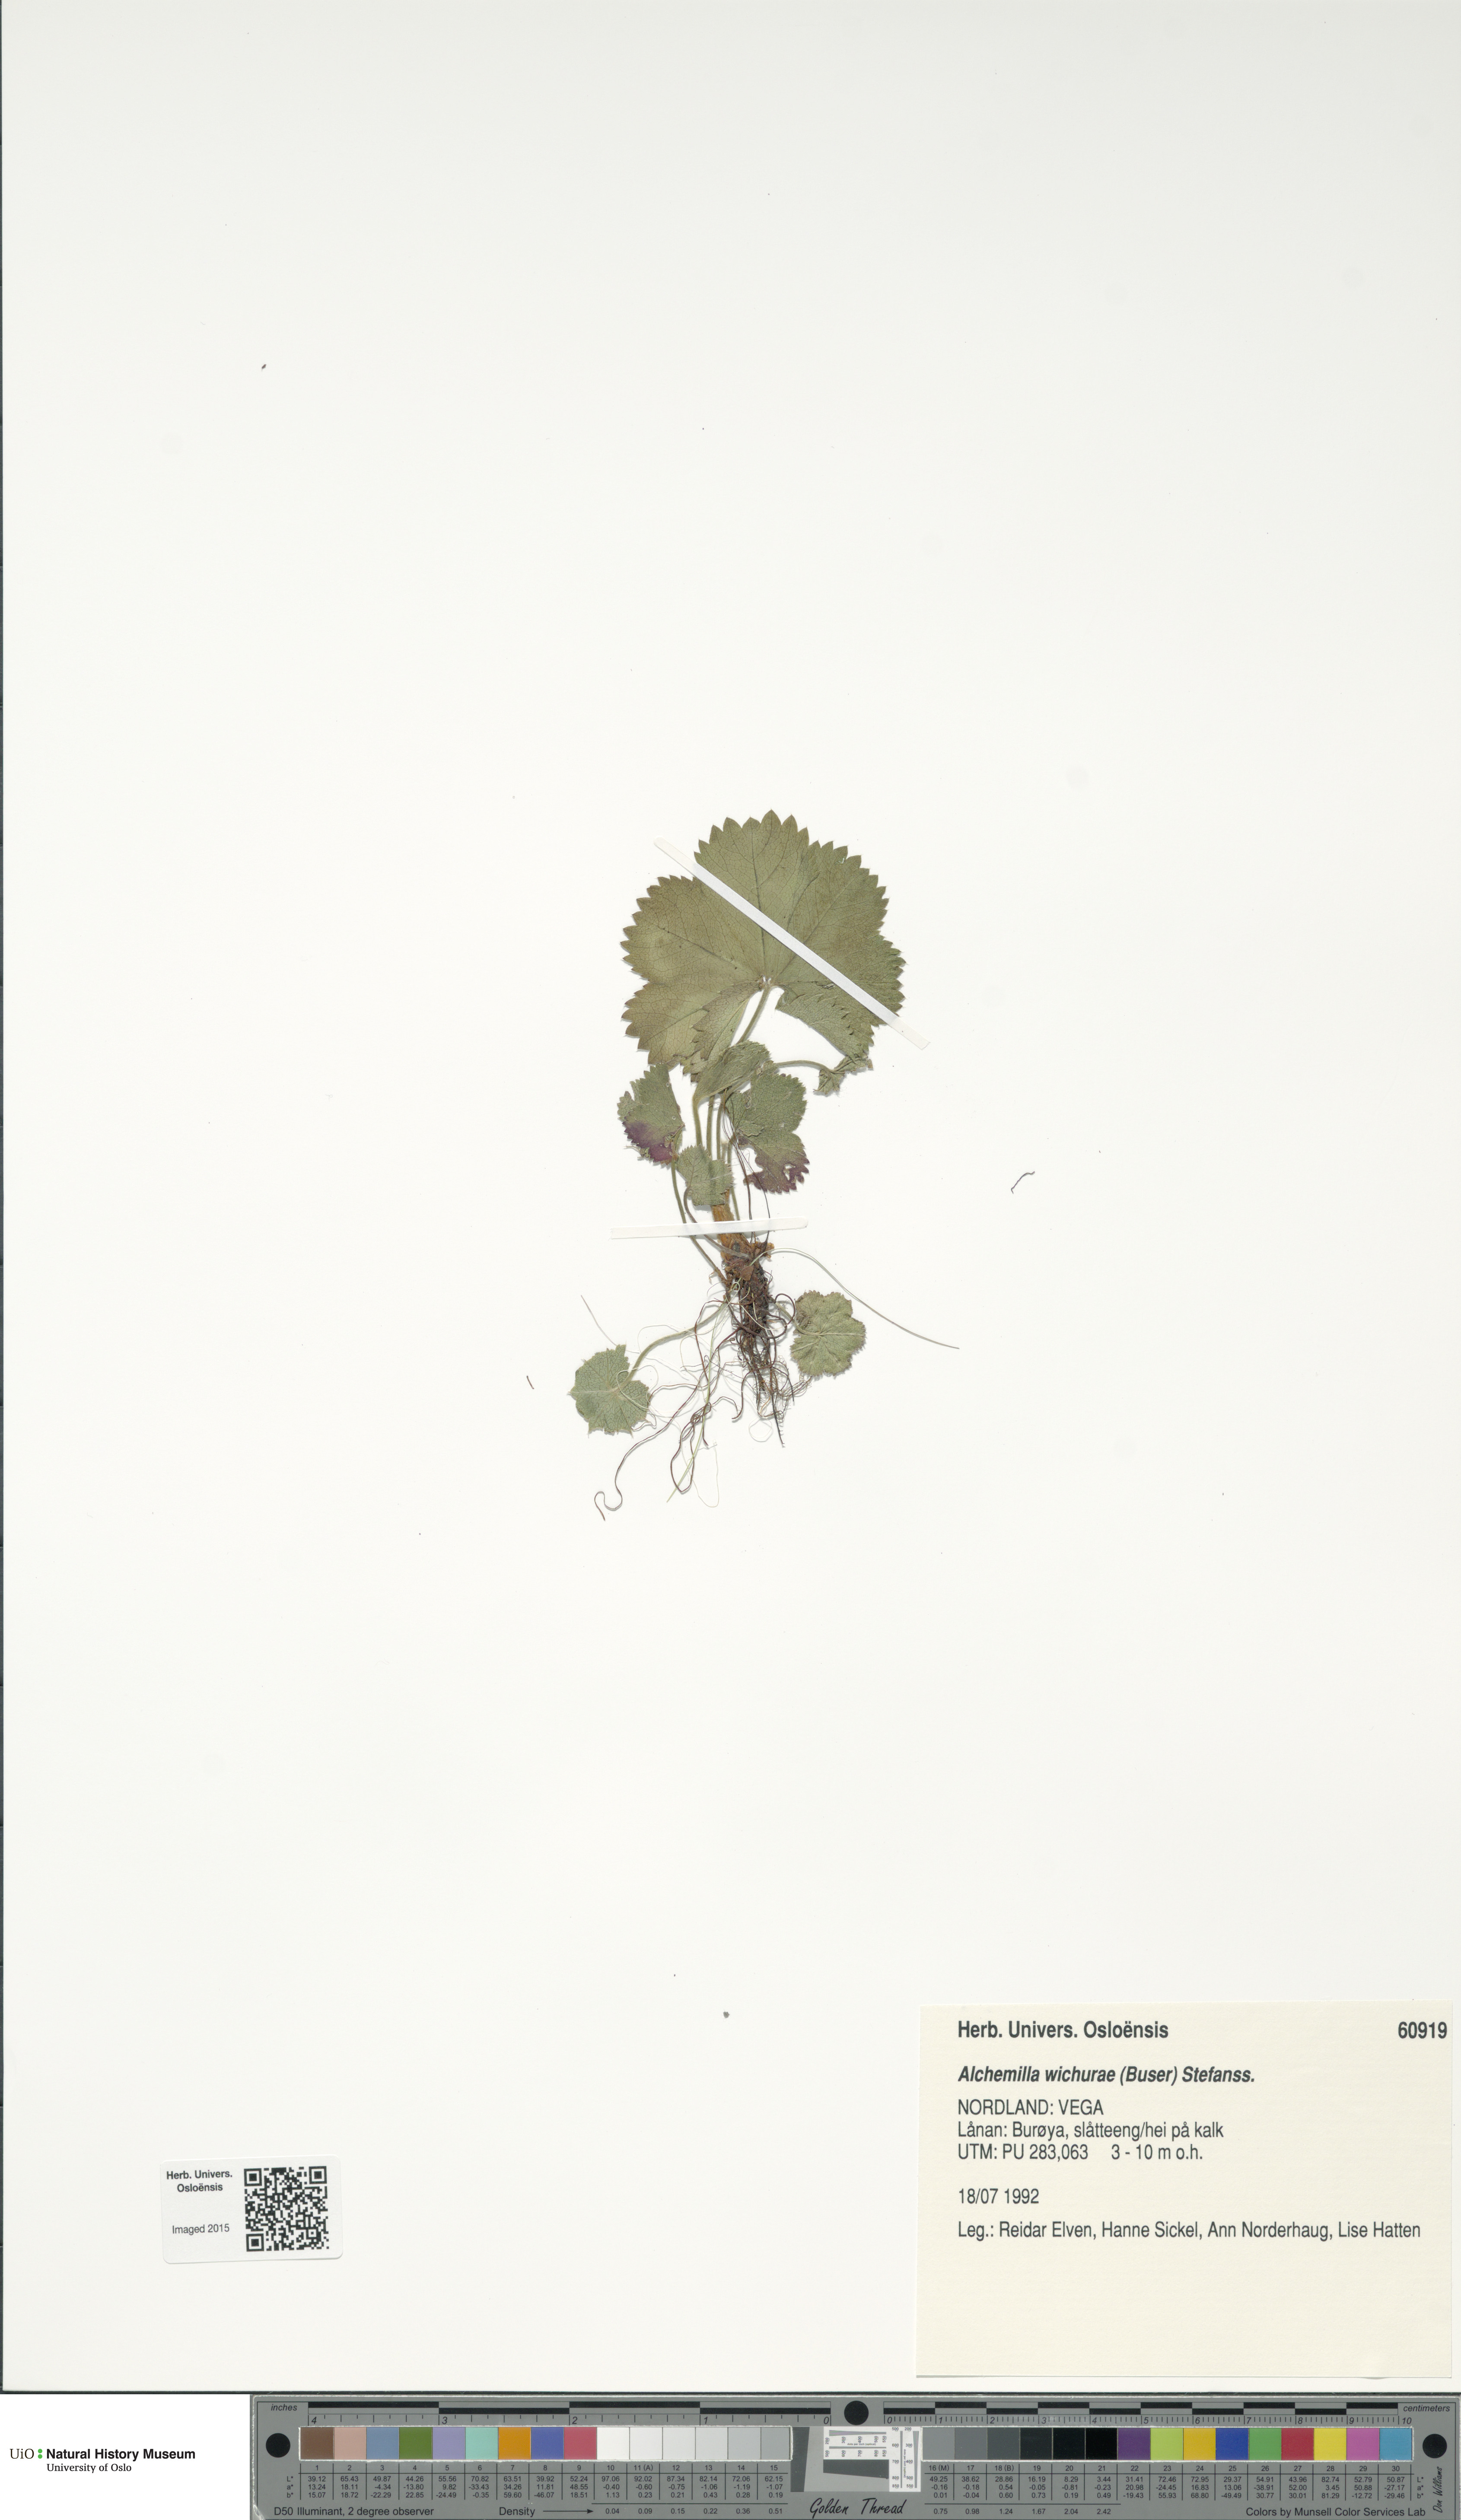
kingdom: Plantae
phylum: Tracheophyta
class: Magnoliopsida
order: Rosales
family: Rosaceae
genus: Alchemilla
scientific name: Alchemilla wichurae
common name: Rock lady's mantle
